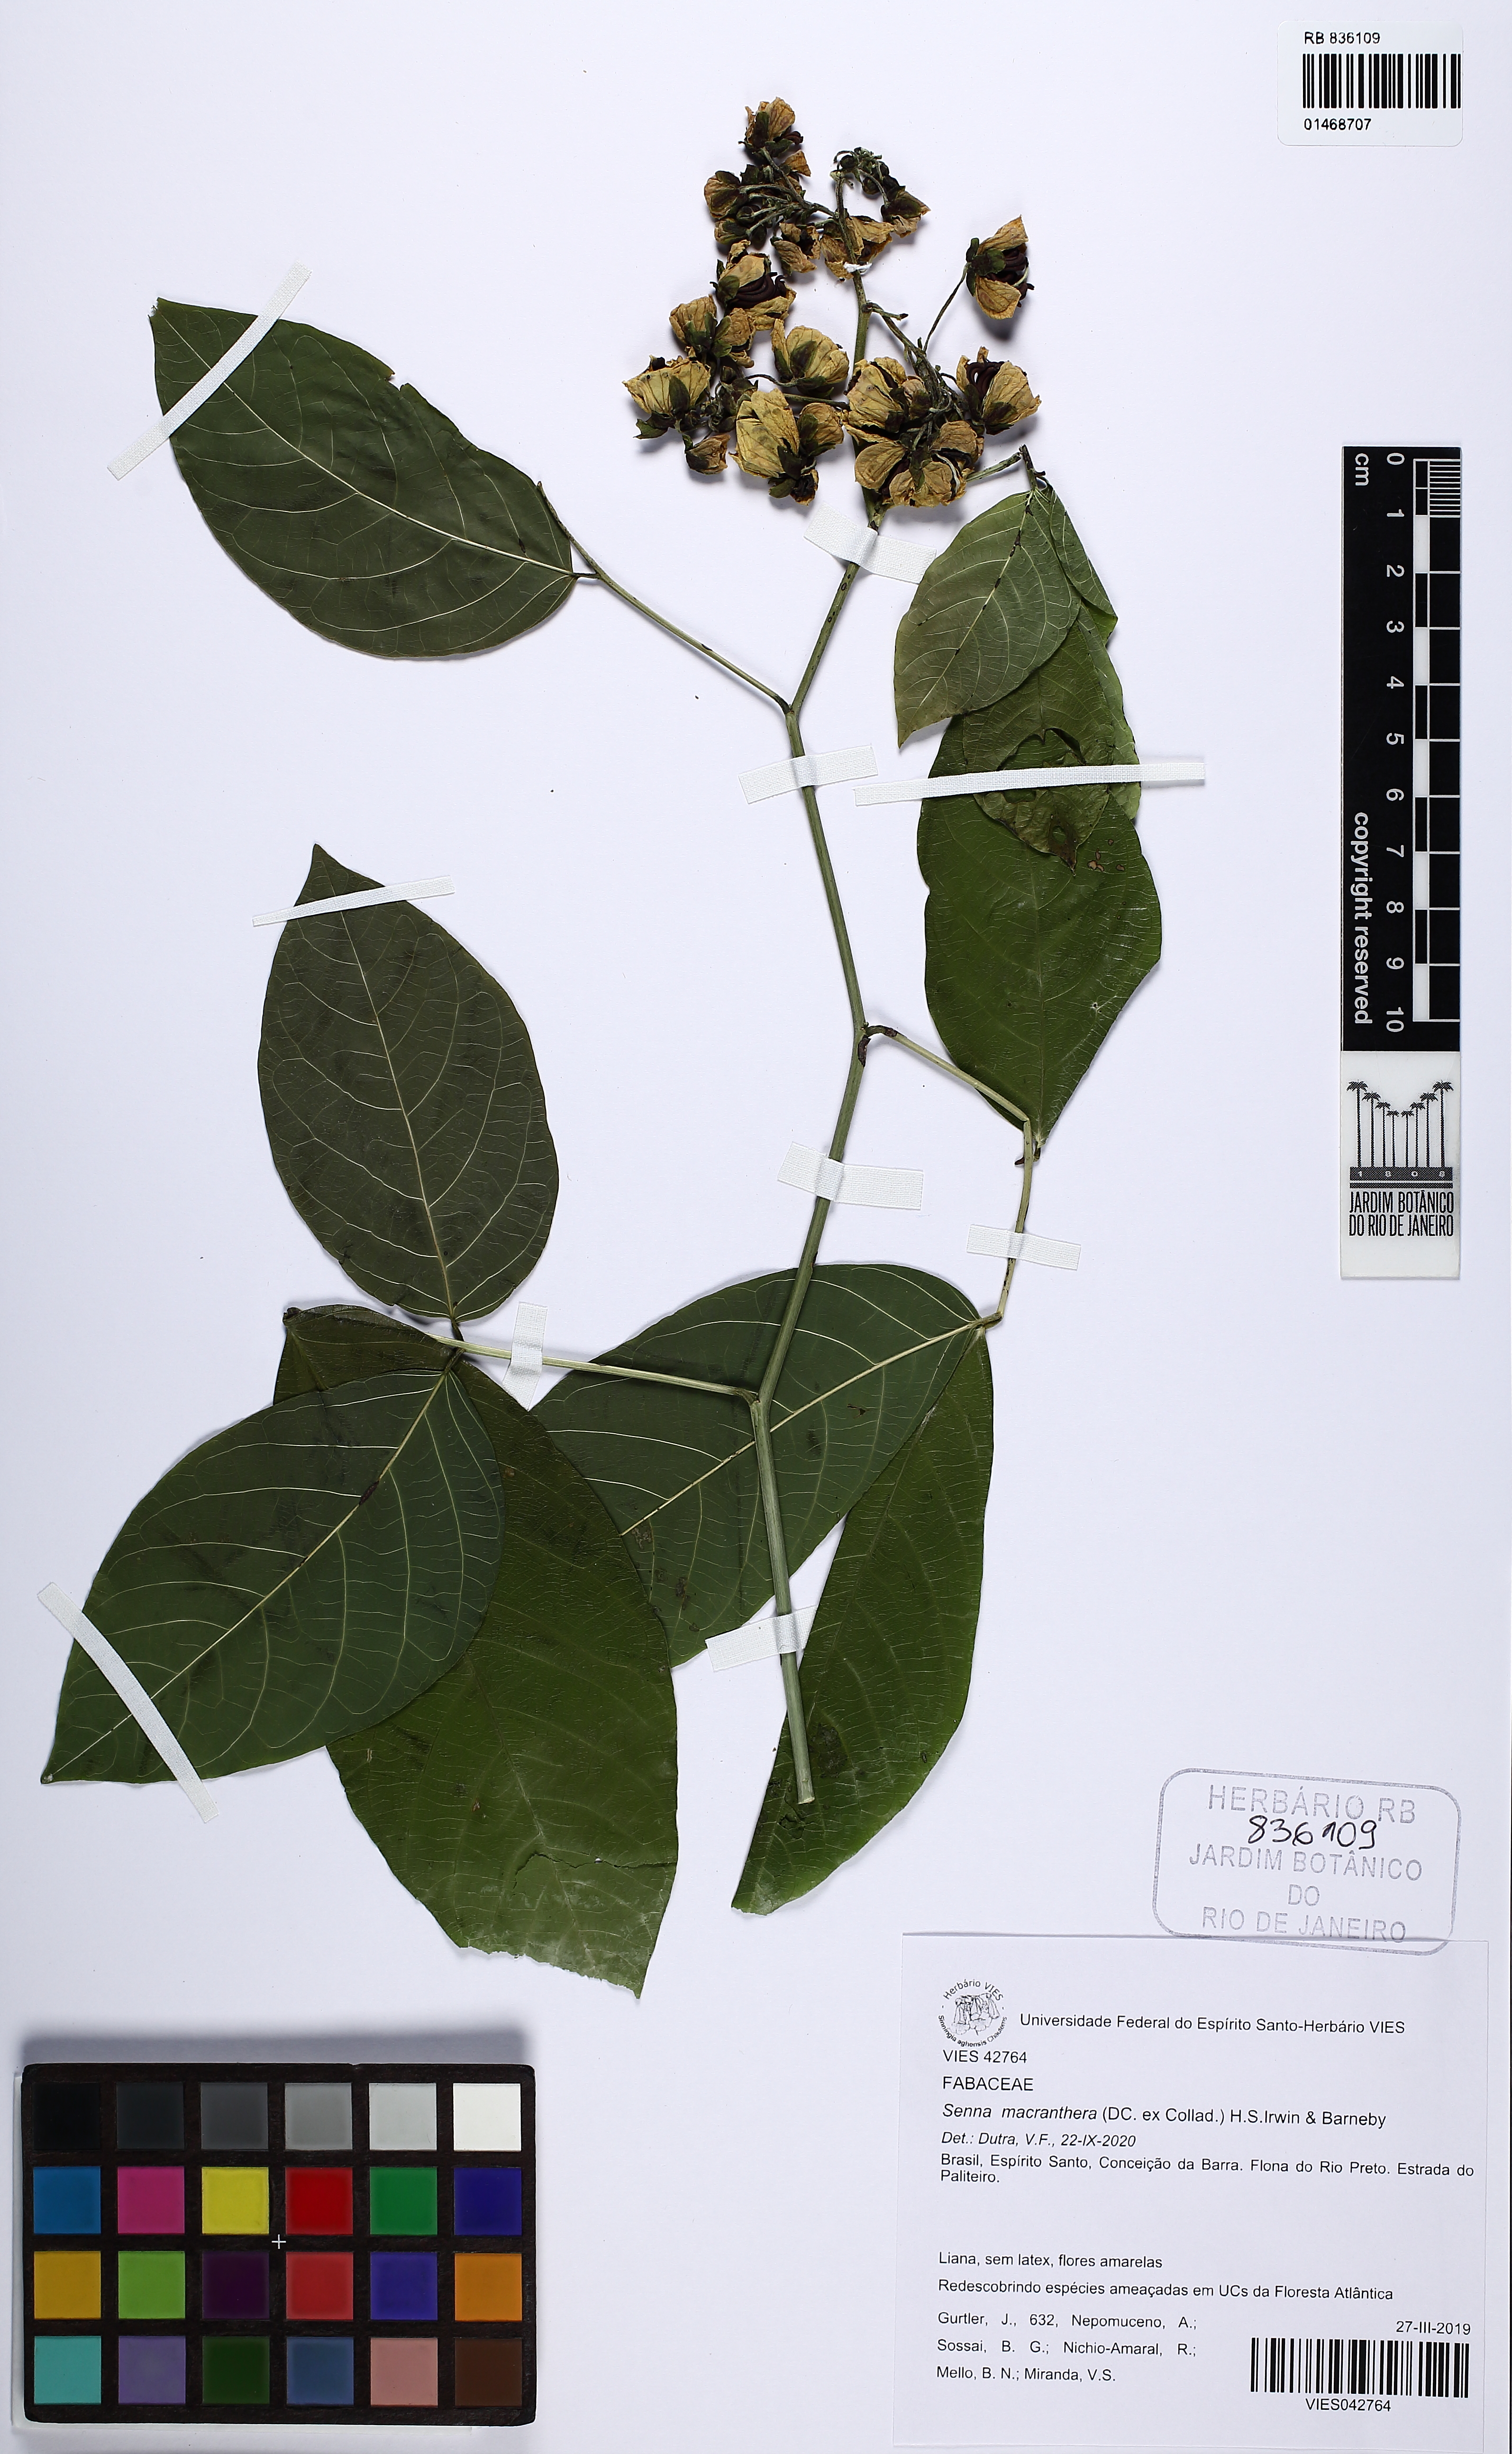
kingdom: Plantae
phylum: Tracheophyta
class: Magnoliopsida
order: Fabales
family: Fabaceae
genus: Senna
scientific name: Senna affinis
